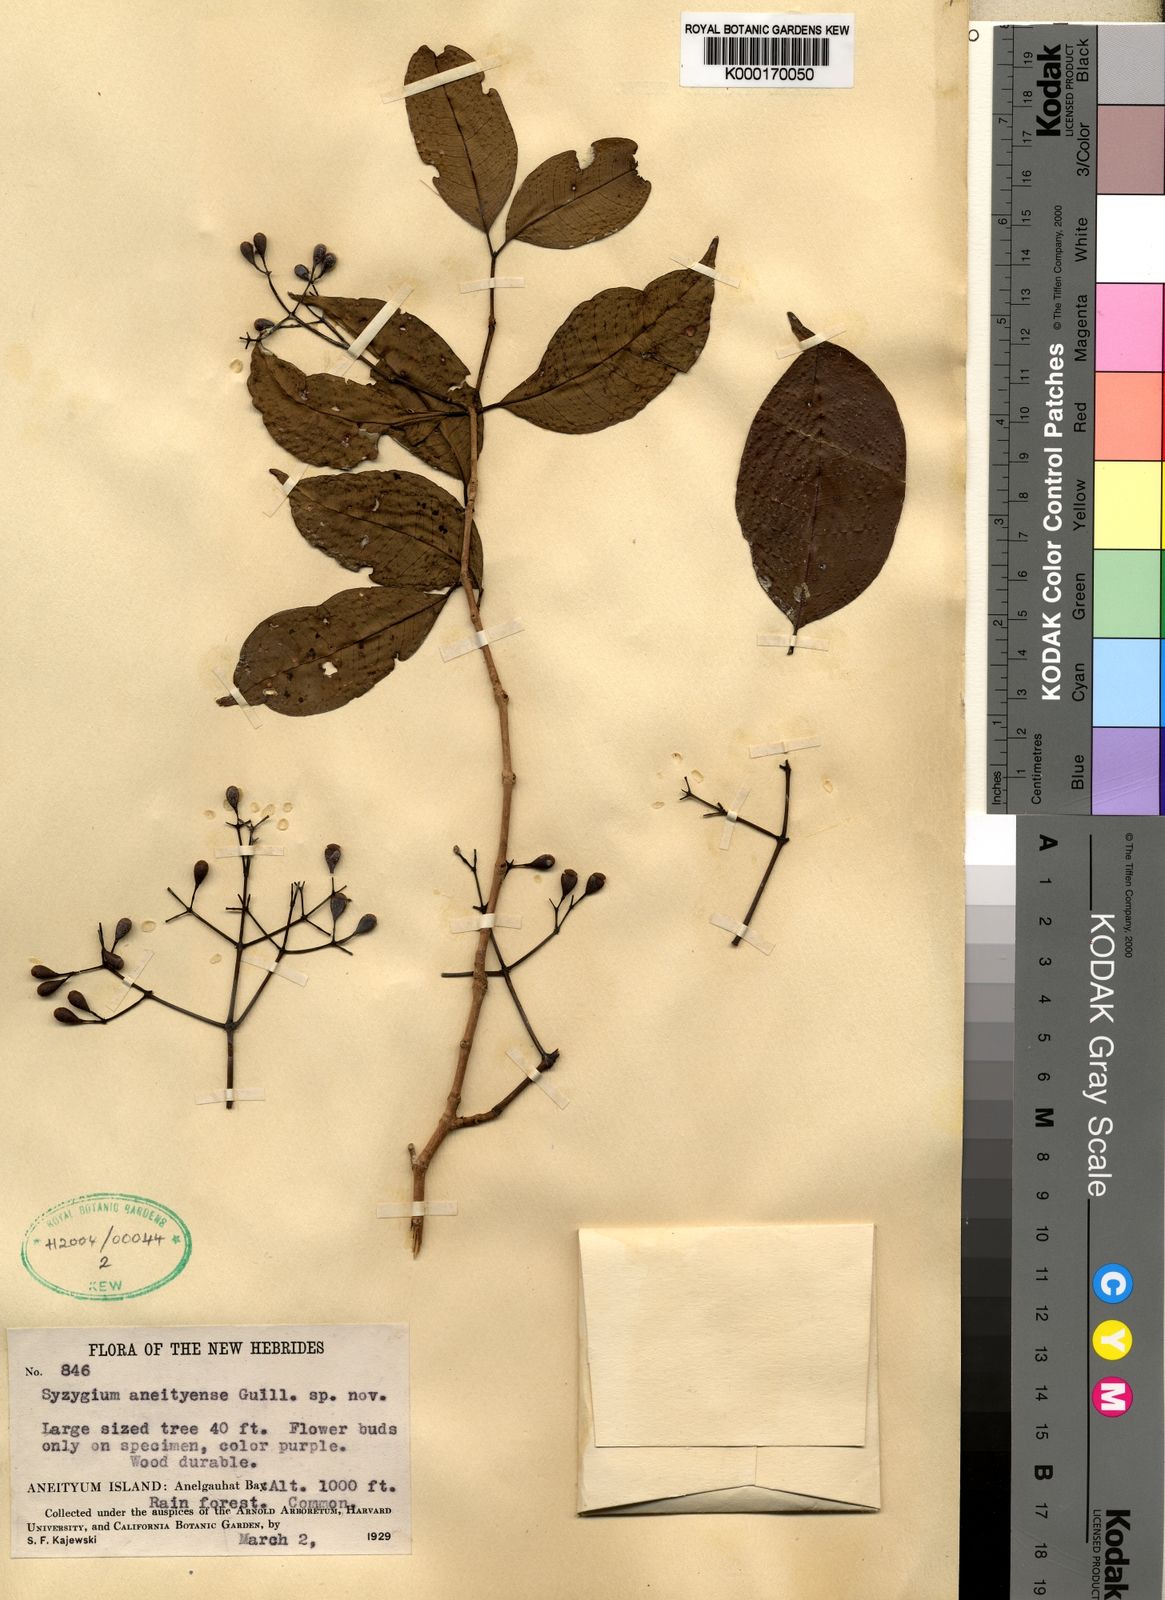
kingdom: Plantae
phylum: Tracheophyta
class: Magnoliopsida
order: Myrtales
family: Myrtaceae
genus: Syzygium
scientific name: Syzygium aneityense
